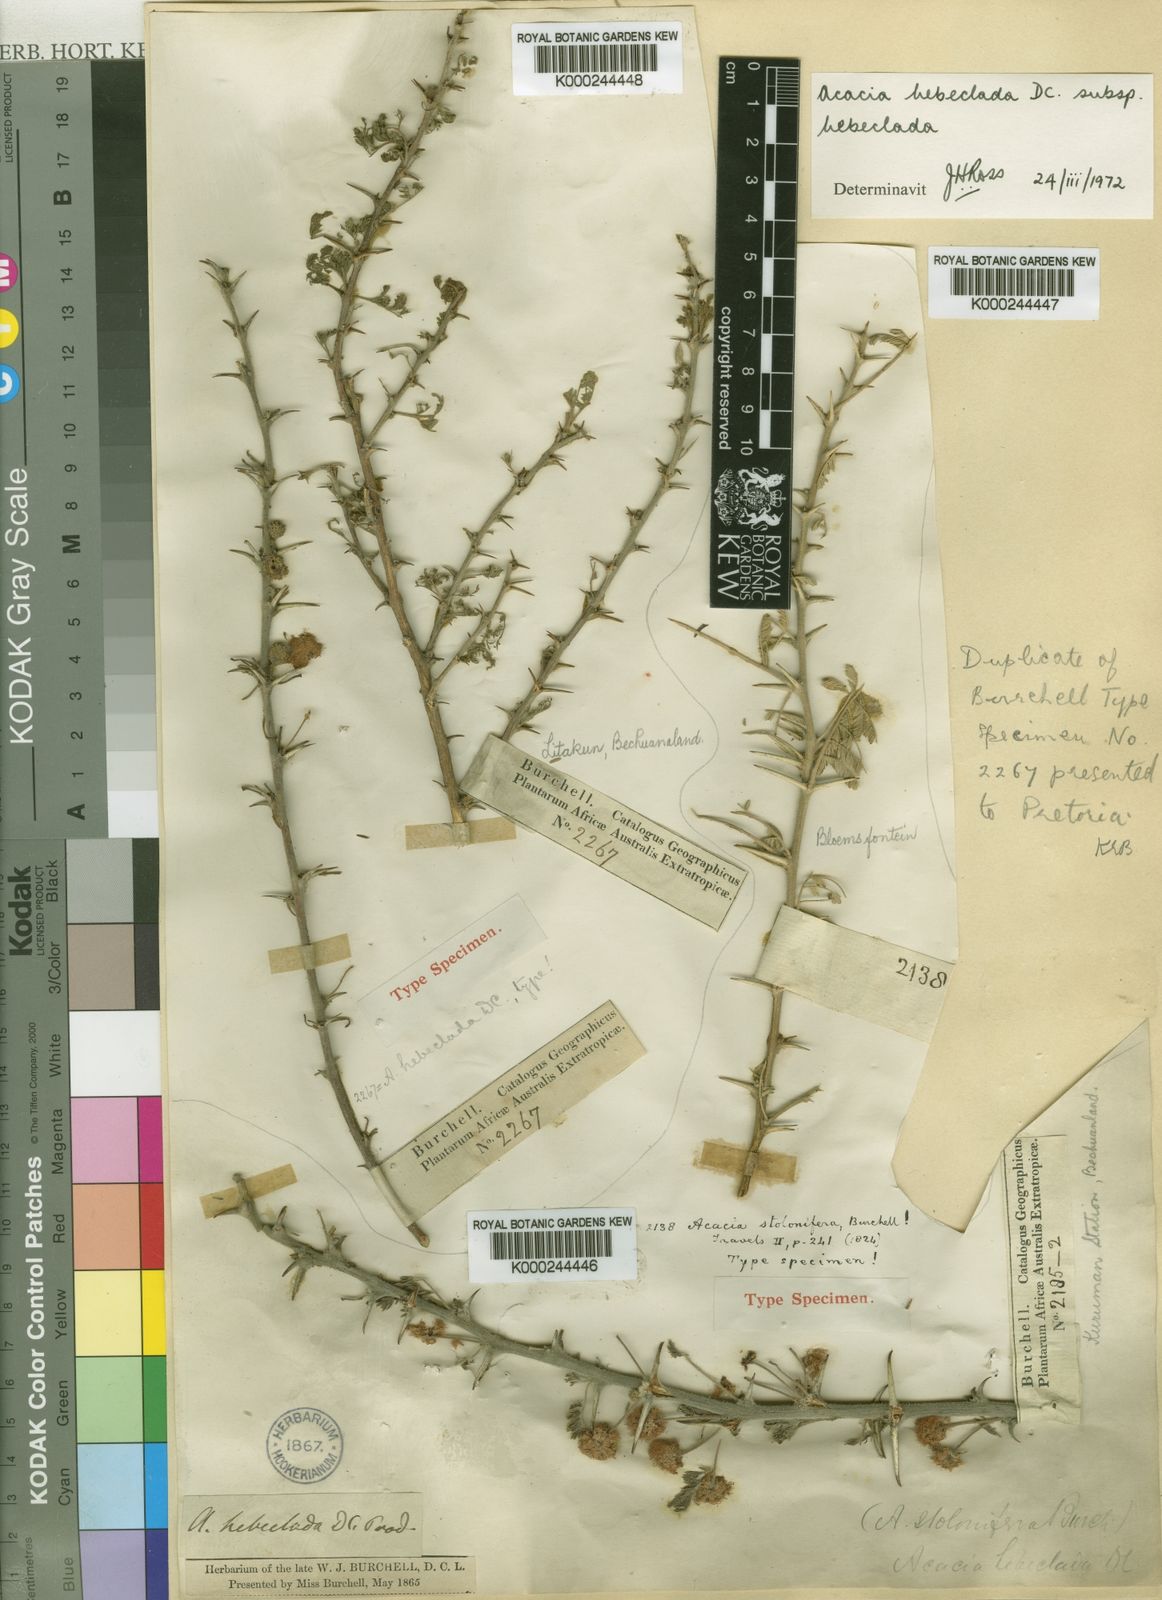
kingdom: Plantae
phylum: Tracheophyta
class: Magnoliopsida
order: Fabales
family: Fabaceae
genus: Vachellia
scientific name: Vachellia hebeclada
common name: Candle thorn
